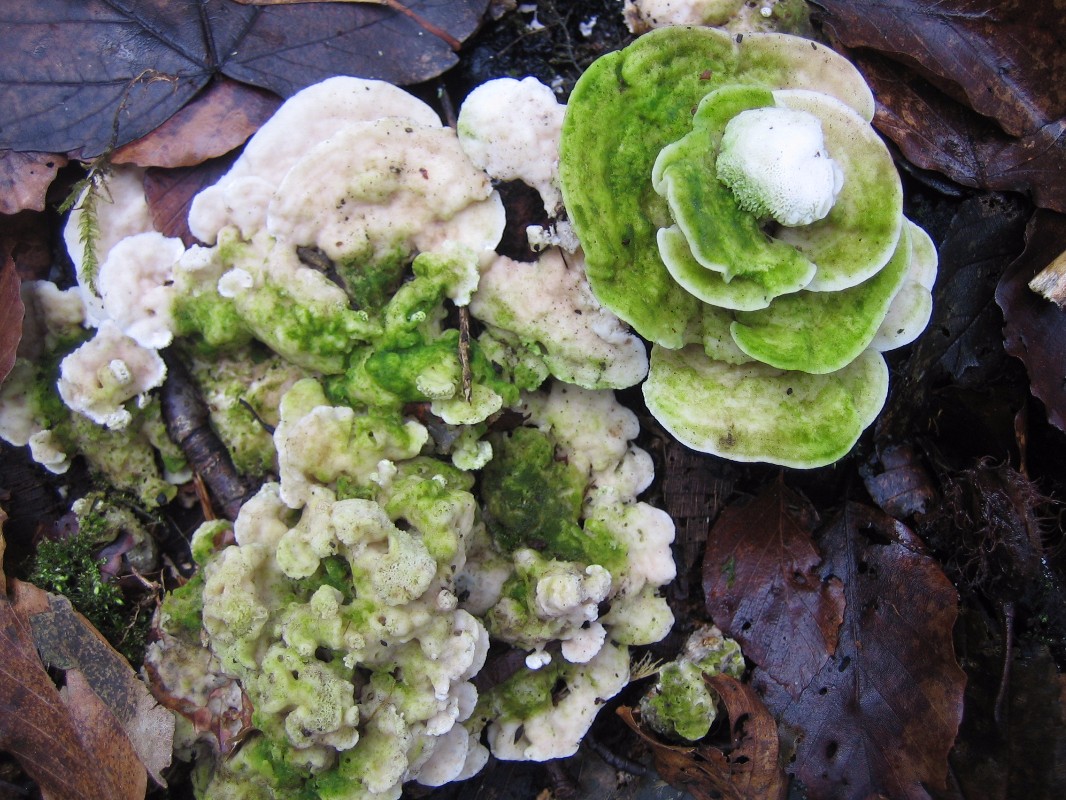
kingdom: Fungi
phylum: Basidiomycota
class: Agaricomycetes
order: Polyporales
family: Polyporaceae
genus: Trametes
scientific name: Trametes gibbosa
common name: puklet læderporesvamp
